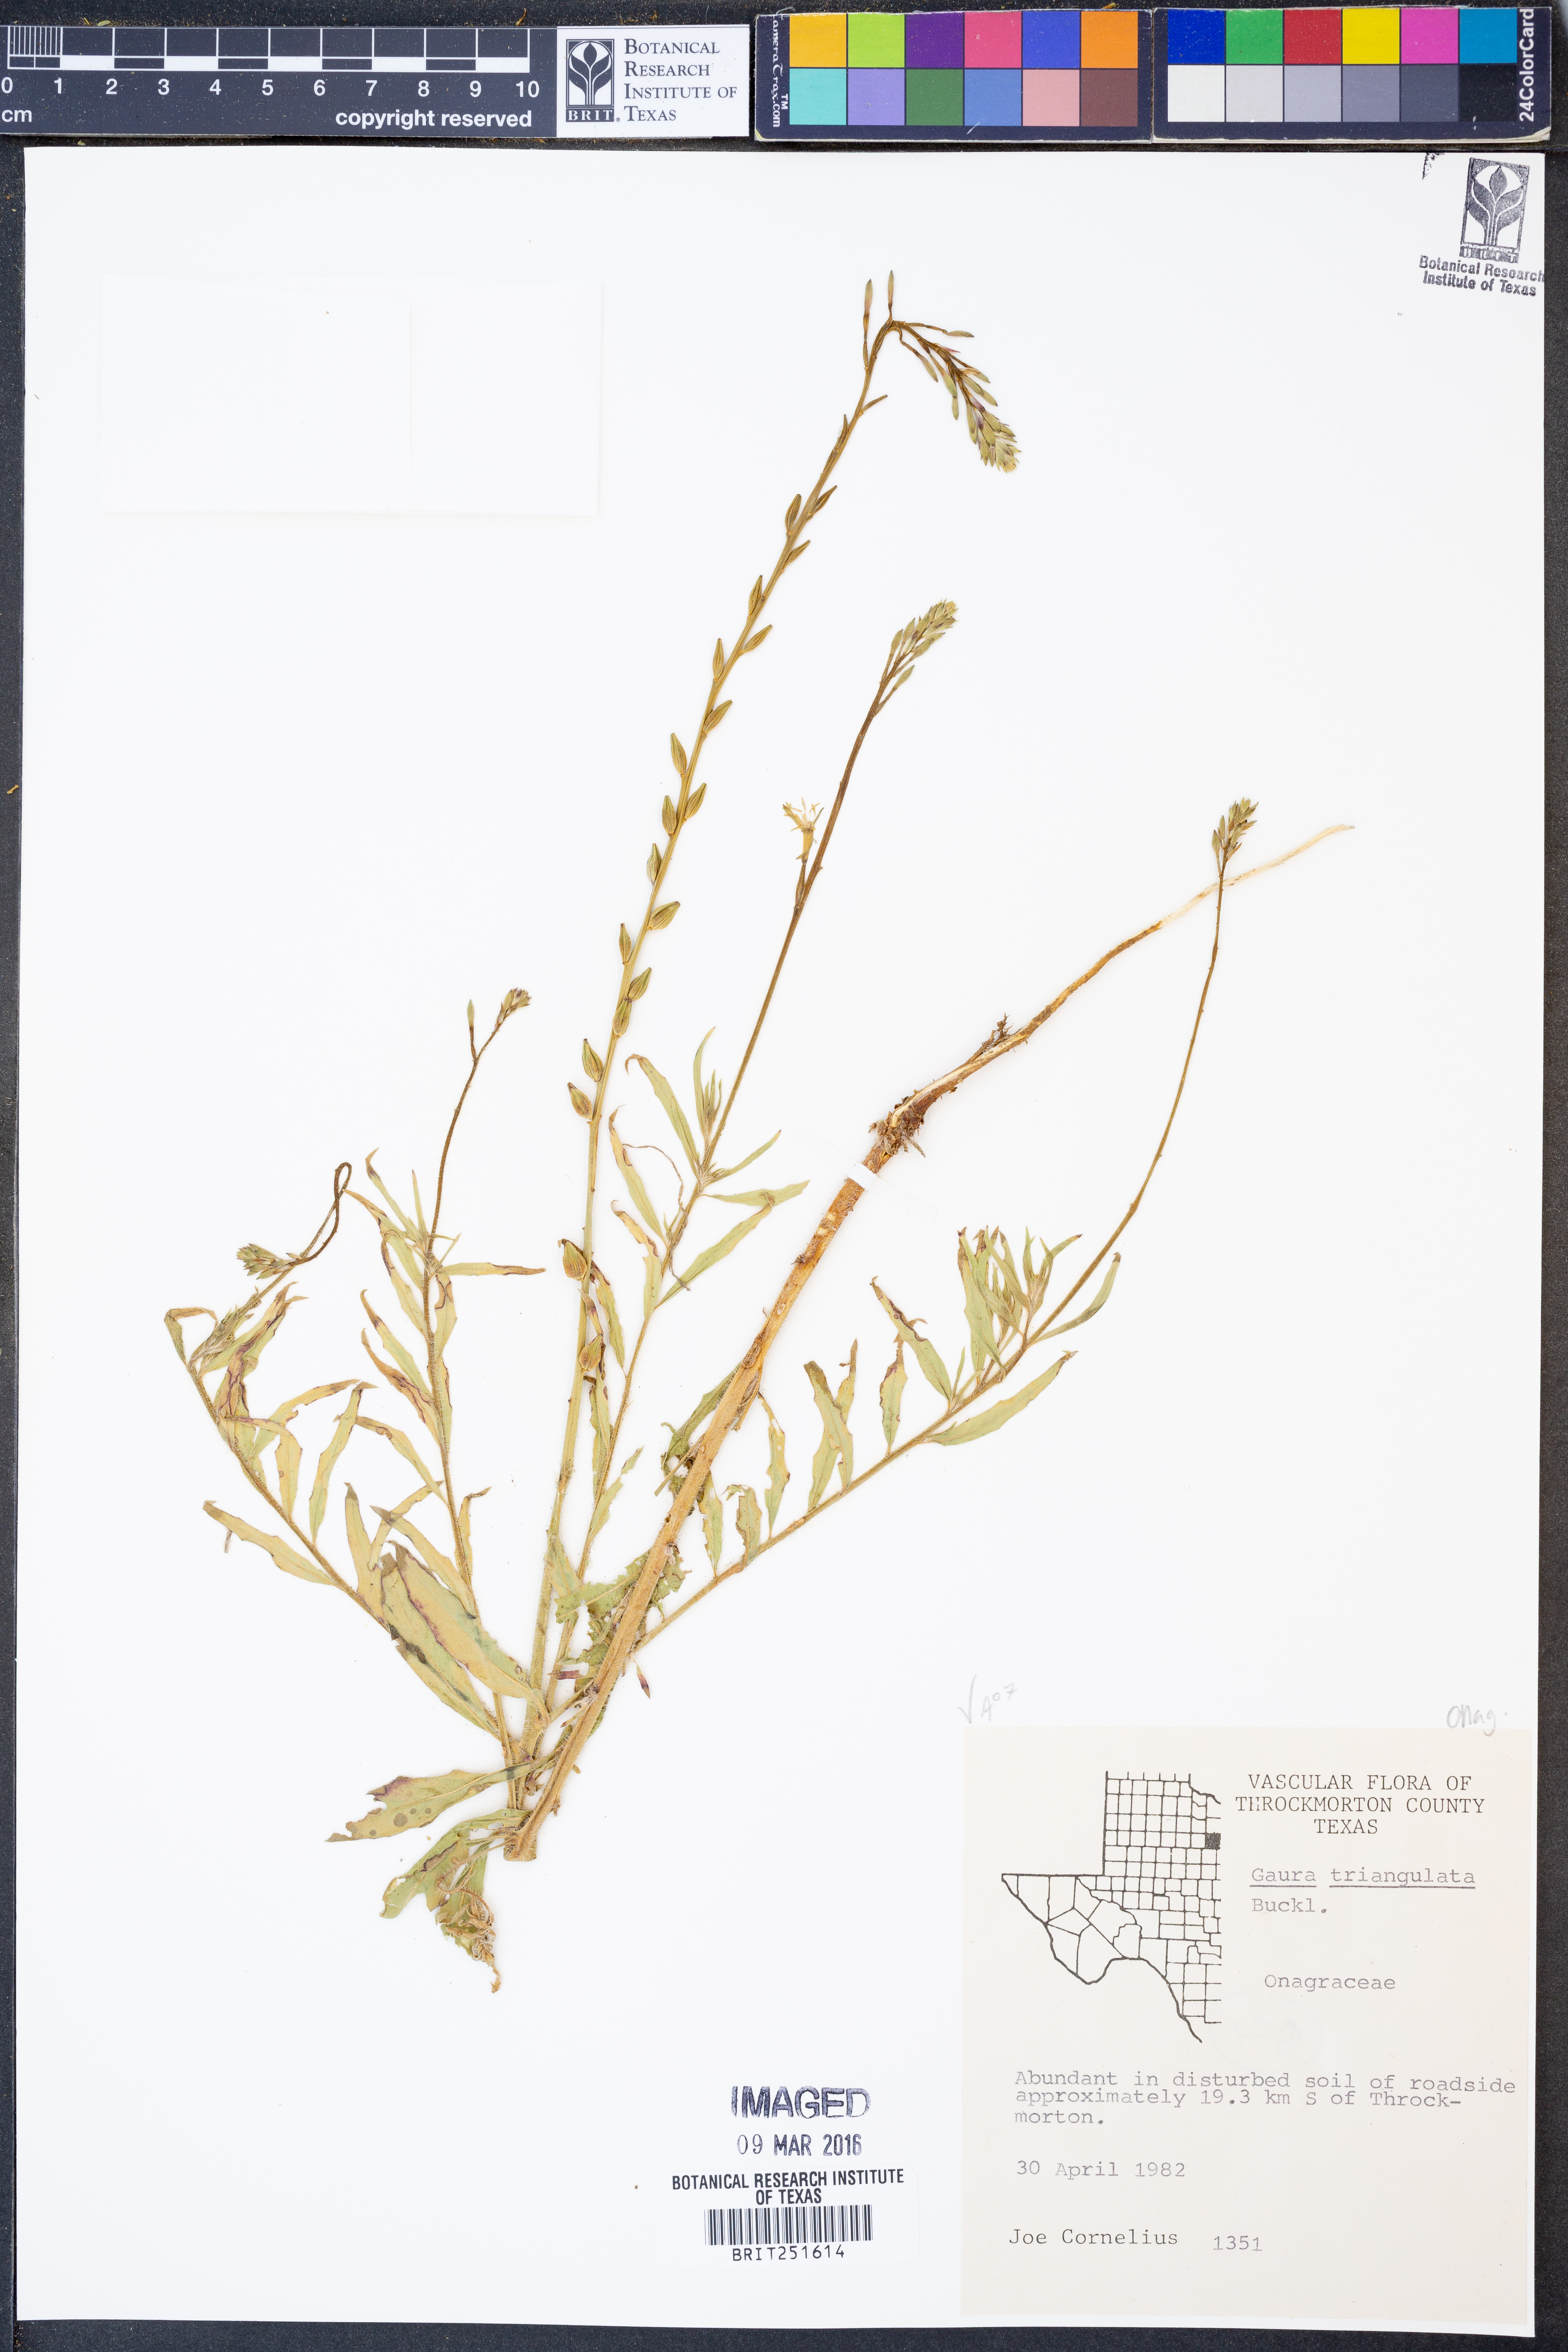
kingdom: Plantae
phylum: Tracheophyta
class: Magnoliopsida
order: Myrtales
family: Onagraceae
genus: Oenothera
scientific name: Oenothera triangulata
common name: Prairie beeblossom
